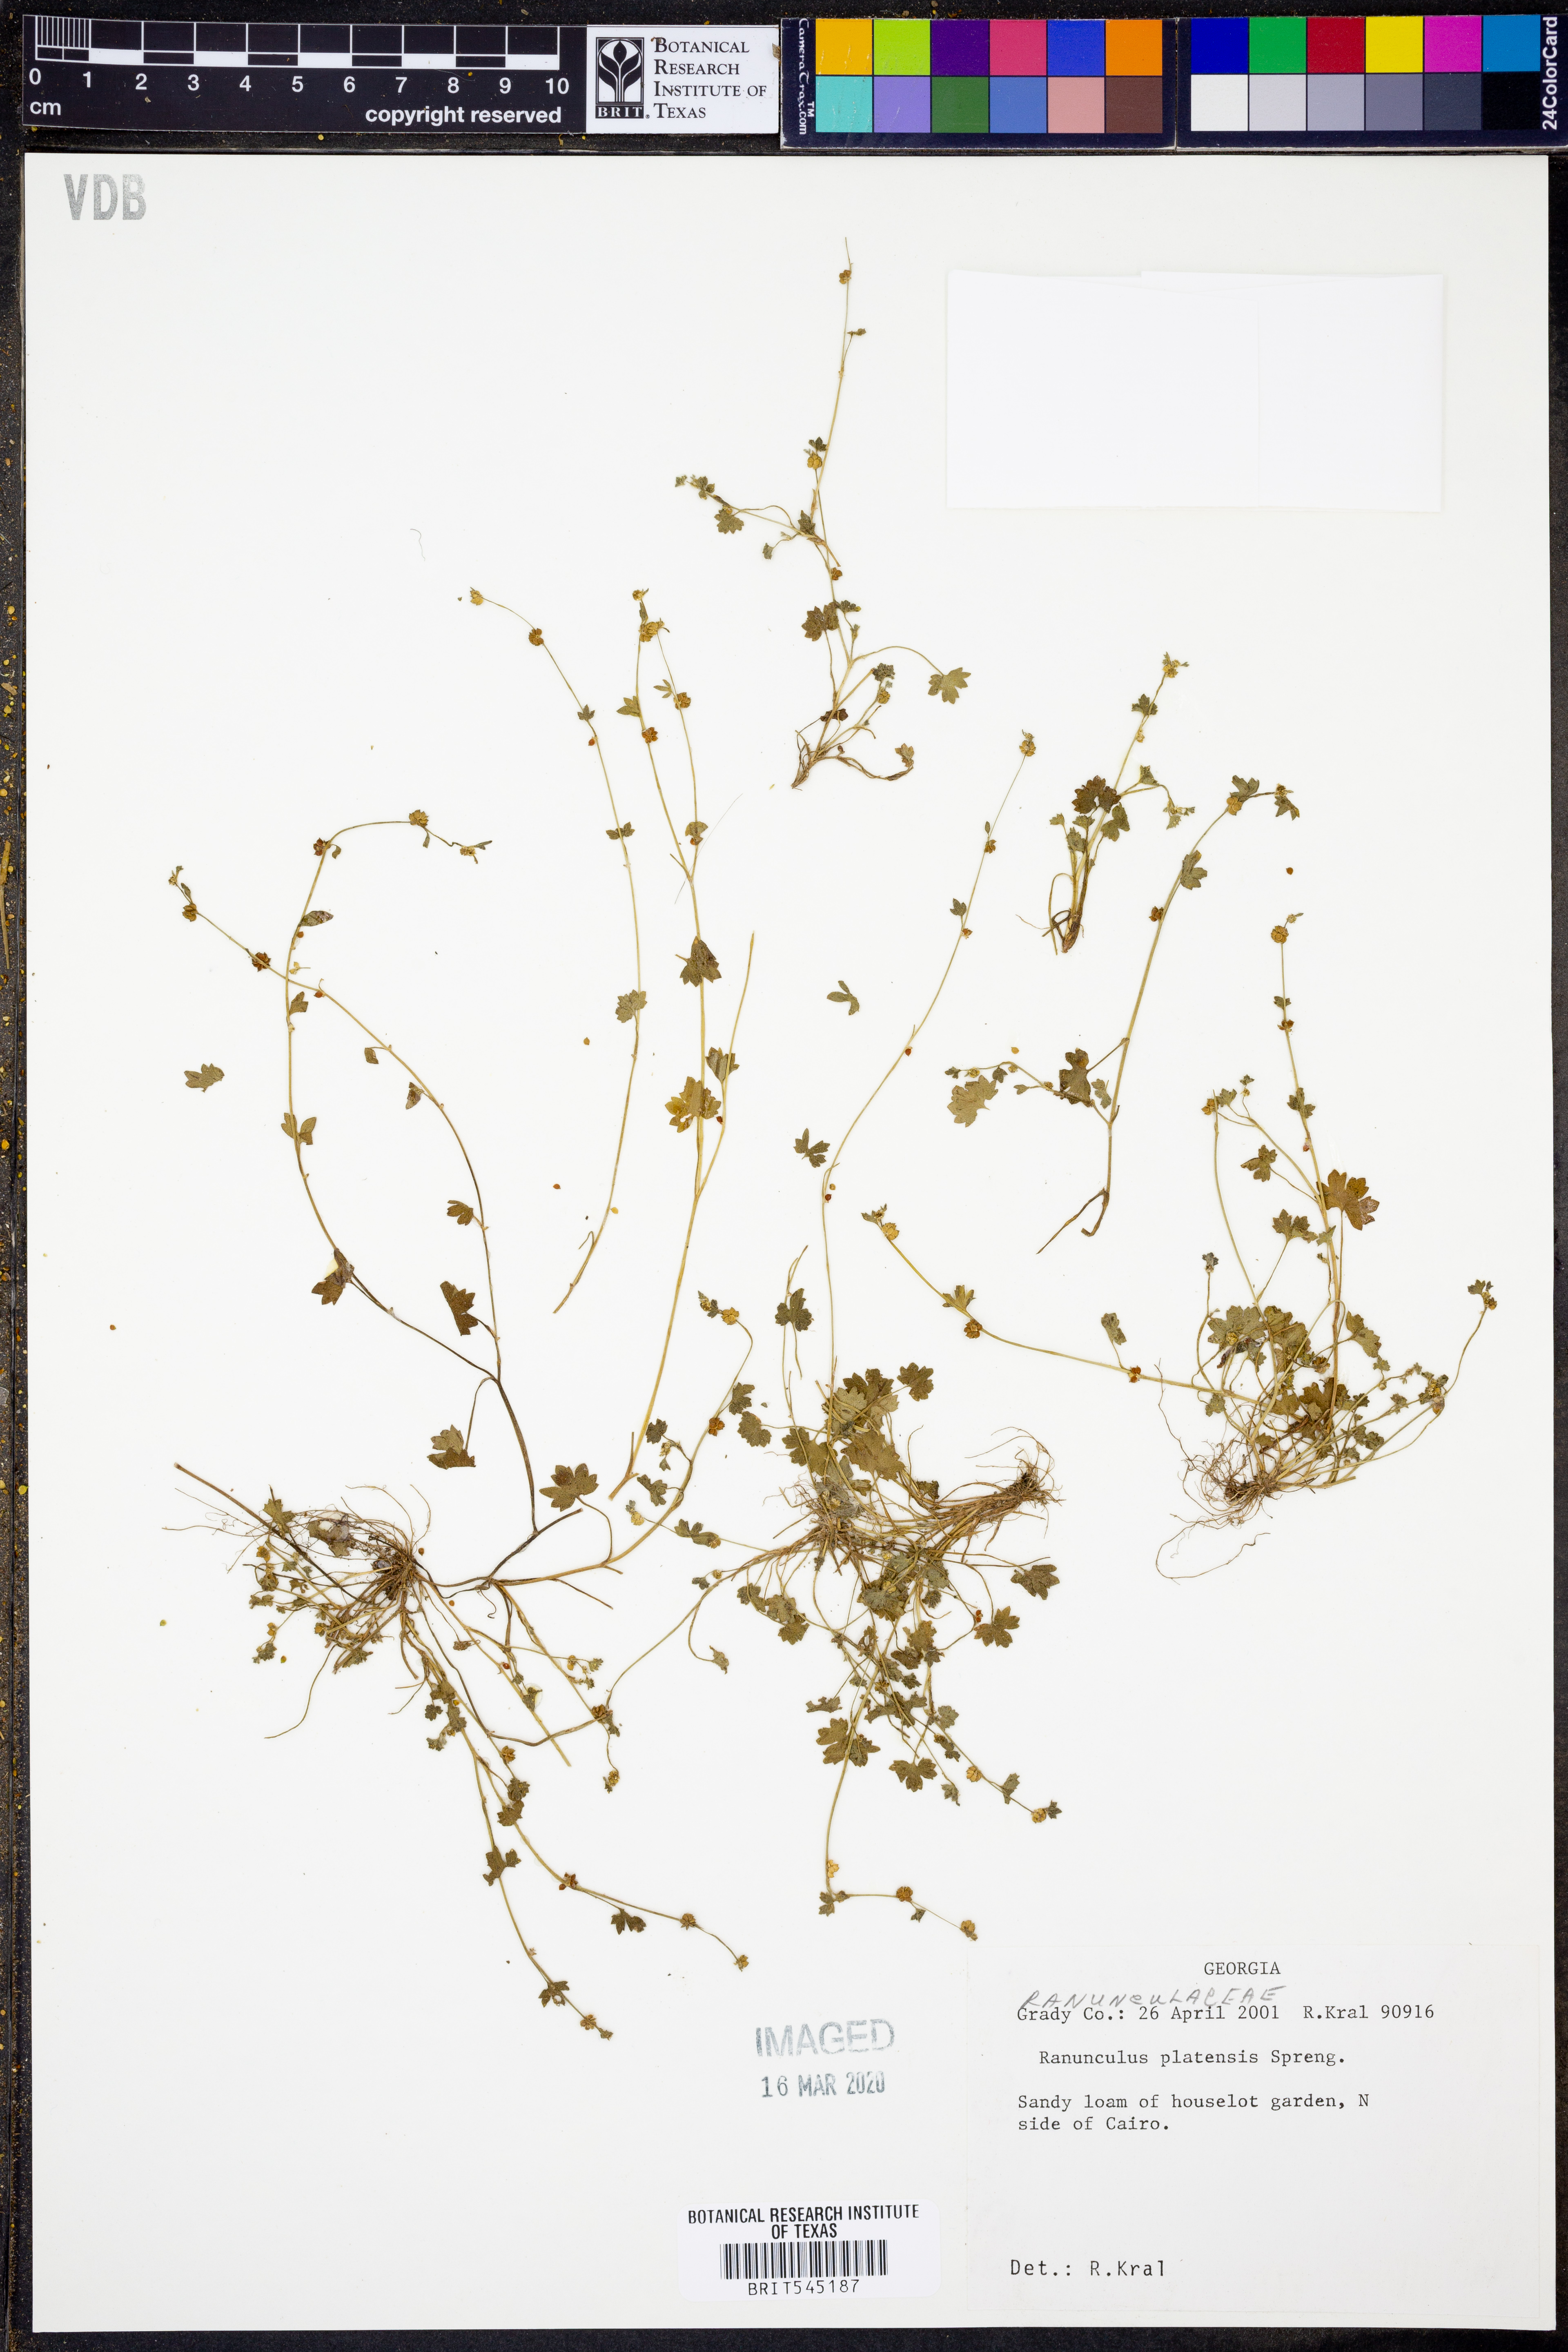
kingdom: Plantae
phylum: Tracheophyta
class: Magnoliopsida
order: Ranunculales
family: Ranunculaceae
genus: Ranunculus
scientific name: Ranunculus platensis
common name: Prairie buttercup
